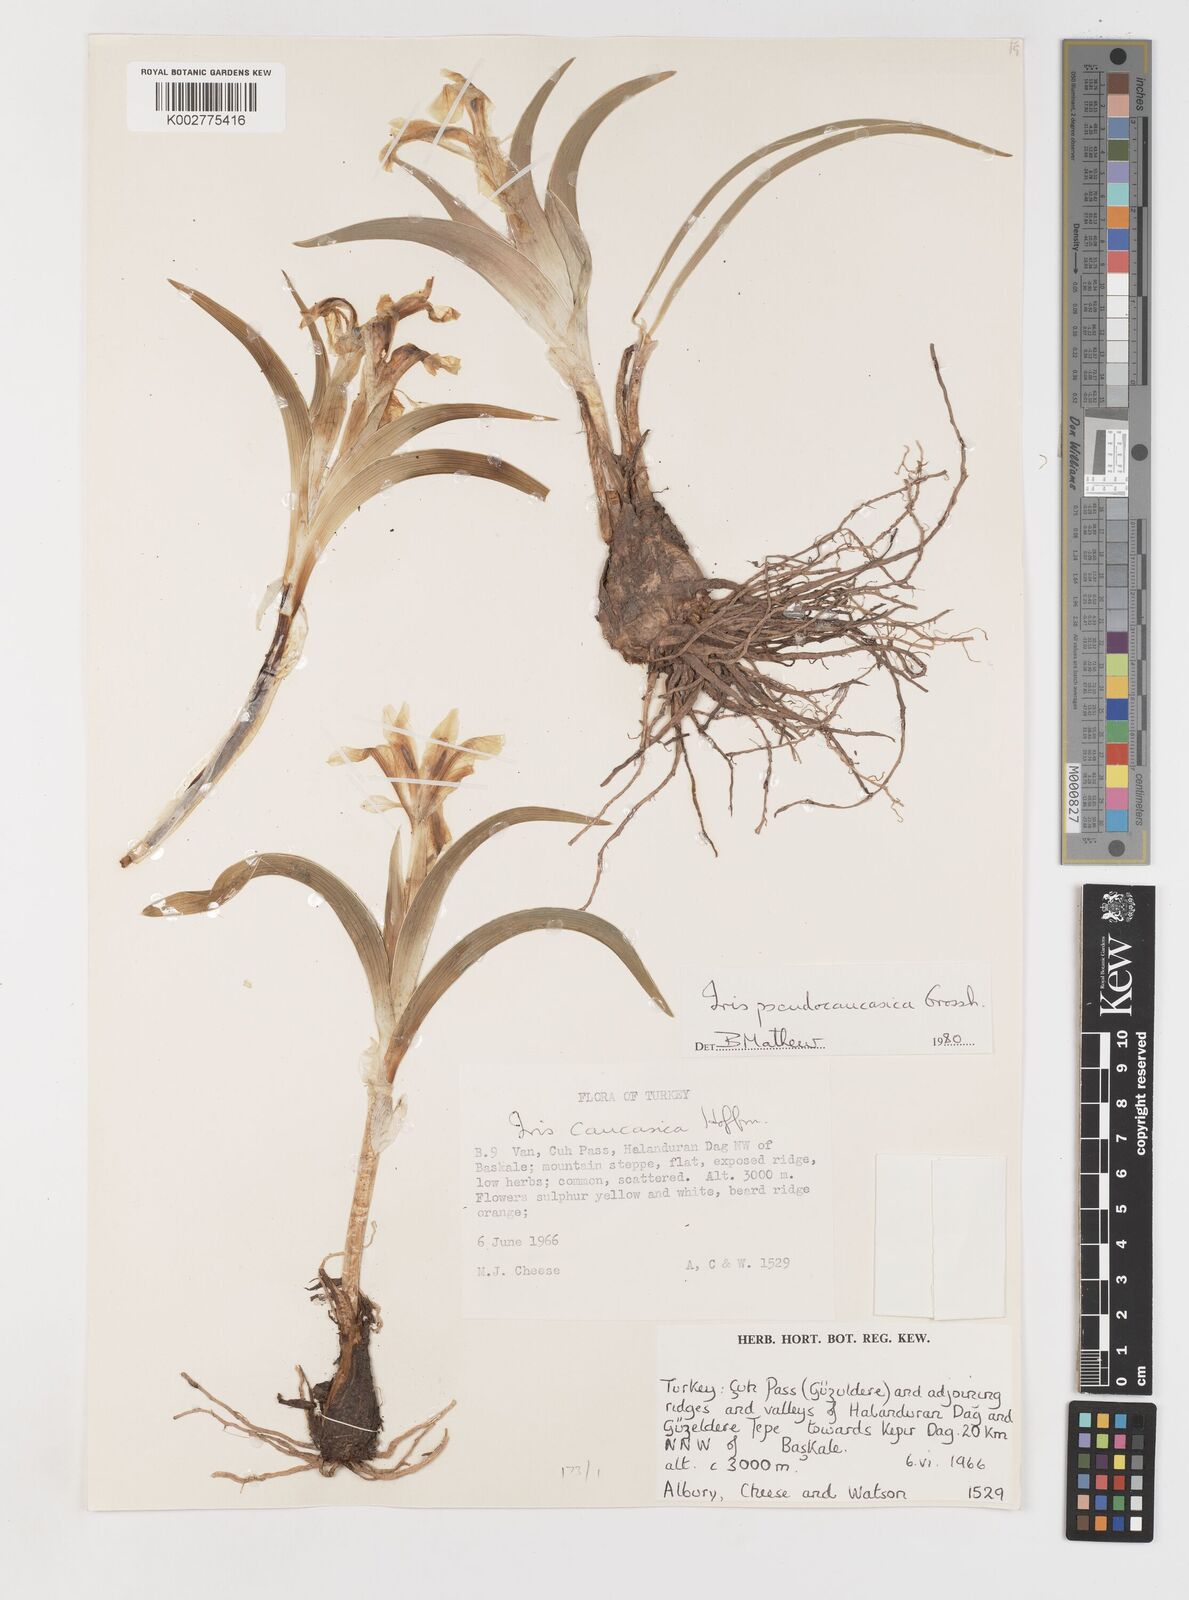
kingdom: Plantae
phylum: Tracheophyta
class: Liliopsida
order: Asparagales
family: Iridaceae
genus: Iris
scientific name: Iris pseudocaucasica
